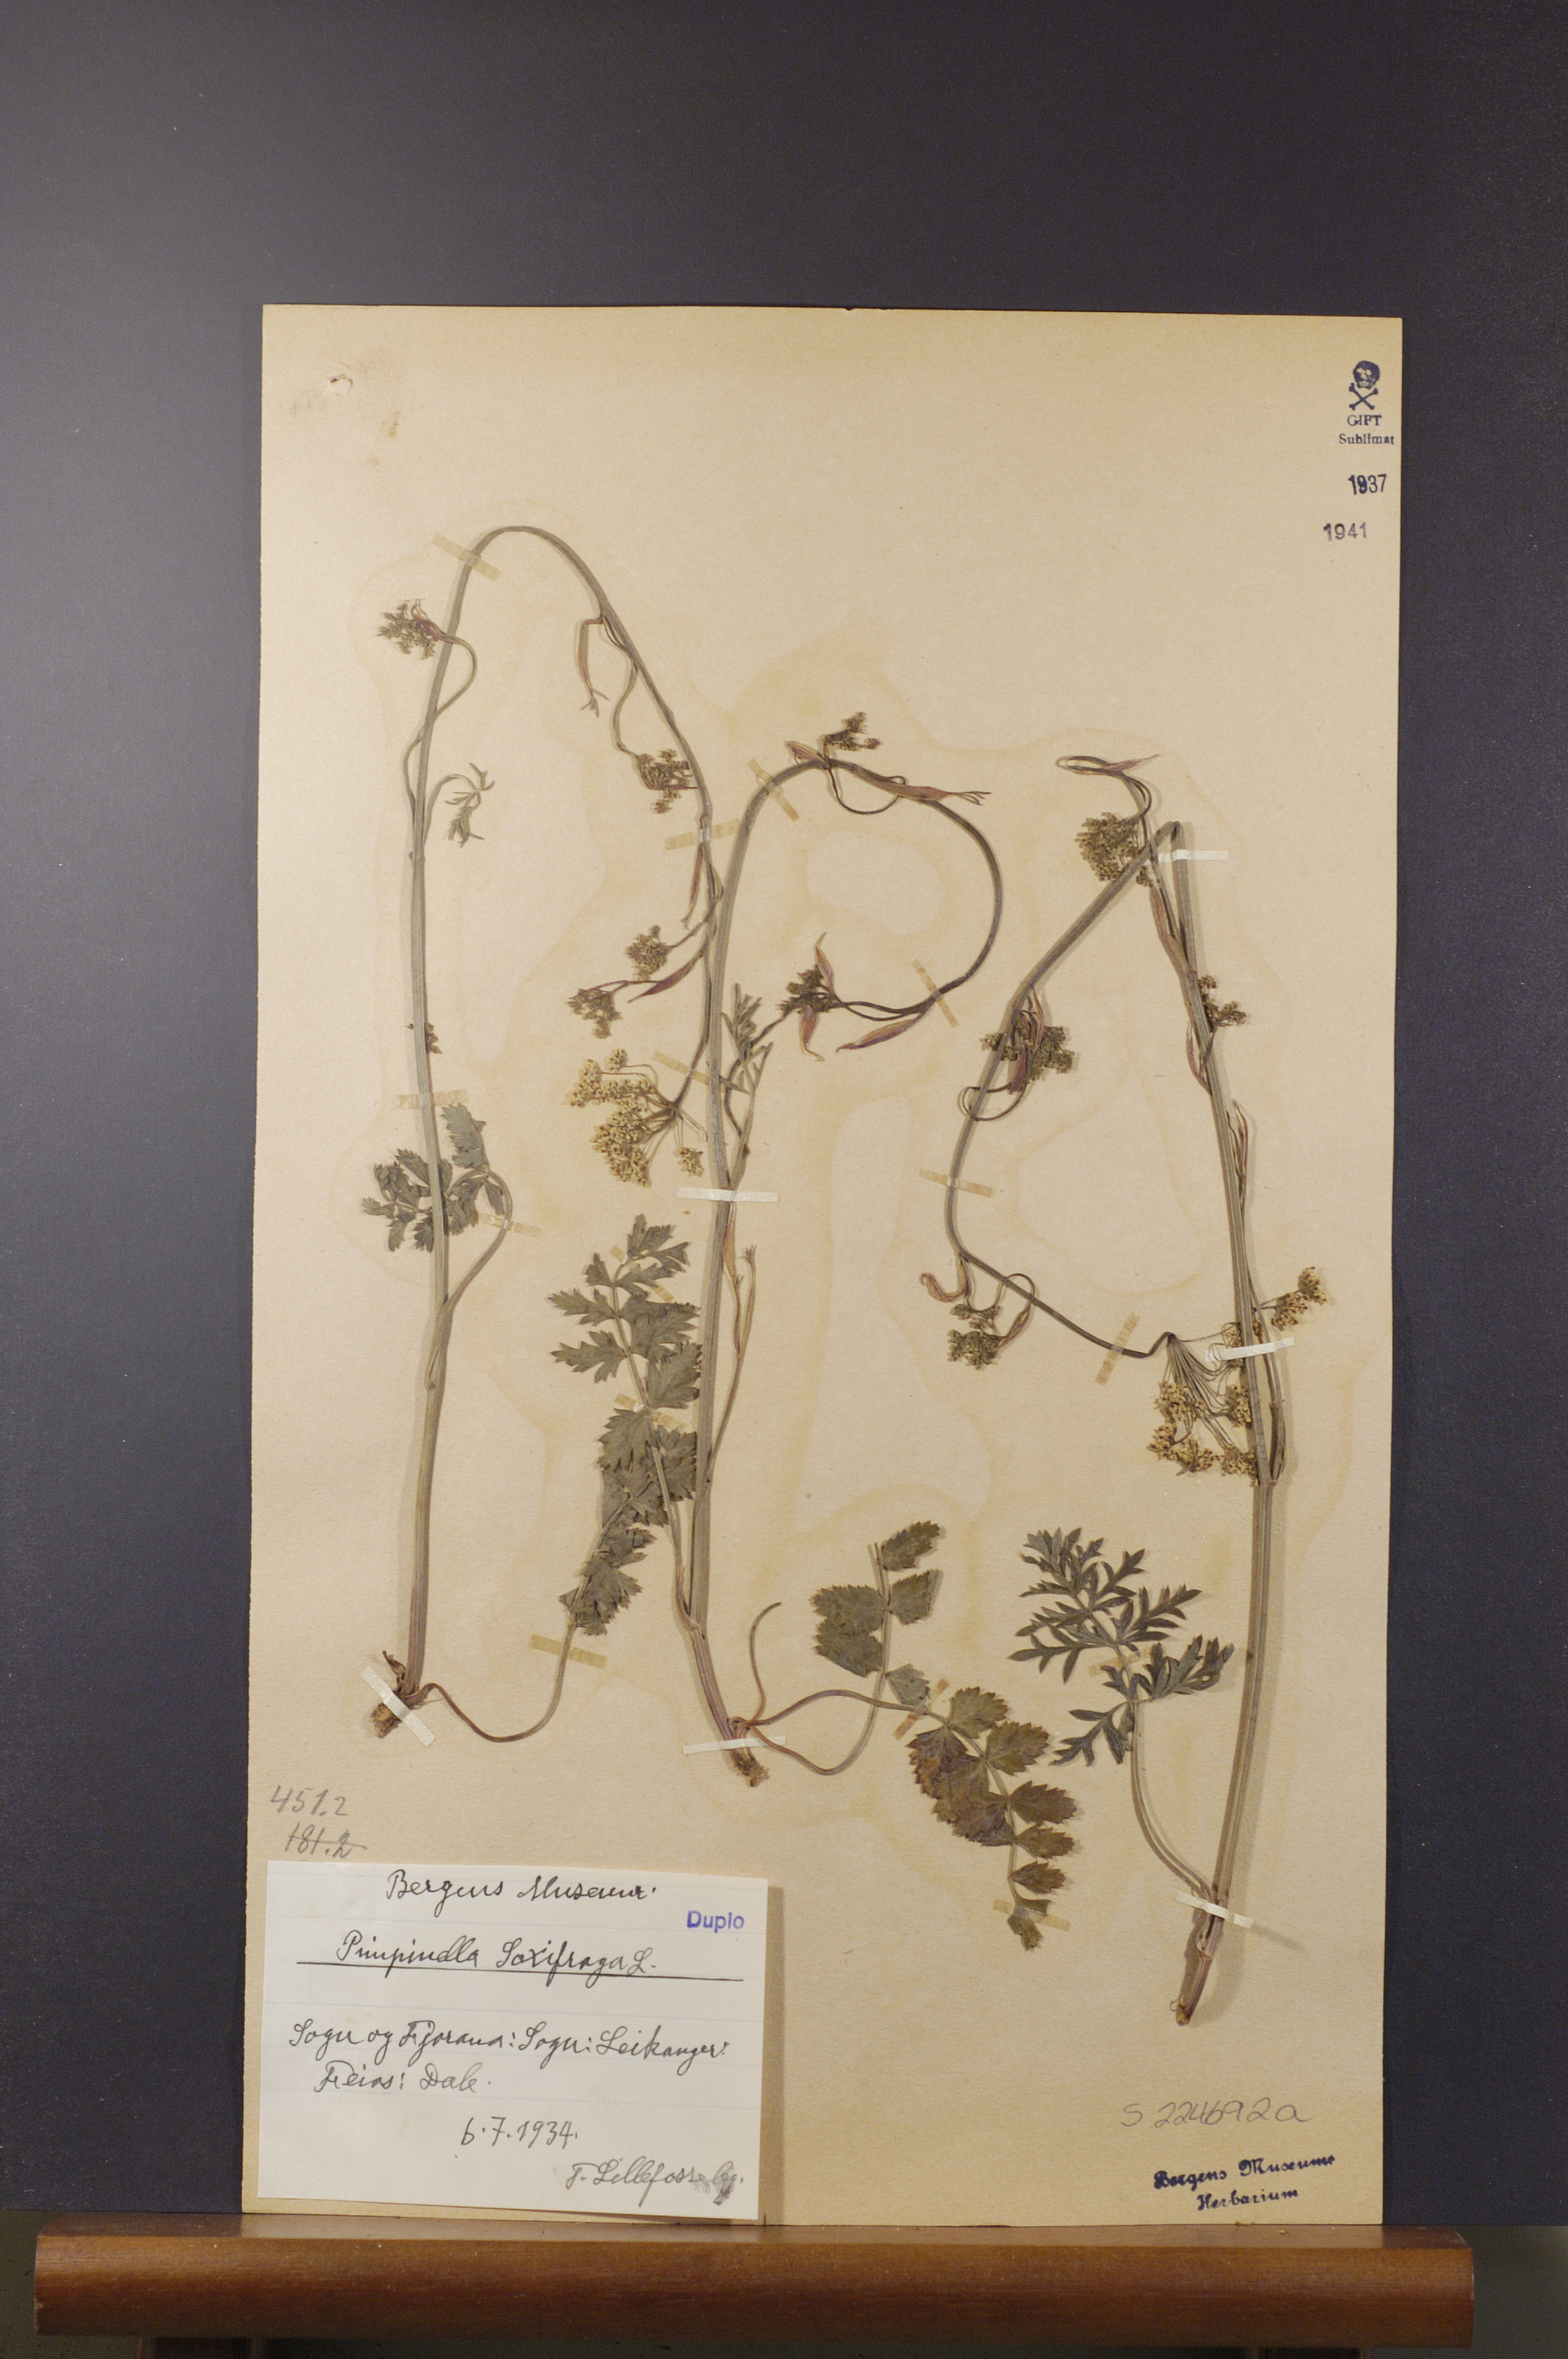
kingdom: Plantae
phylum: Tracheophyta
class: Magnoliopsida
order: Apiales
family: Apiaceae
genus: Pimpinella
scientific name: Pimpinella saxifraga
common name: Burnet-saxifrage
